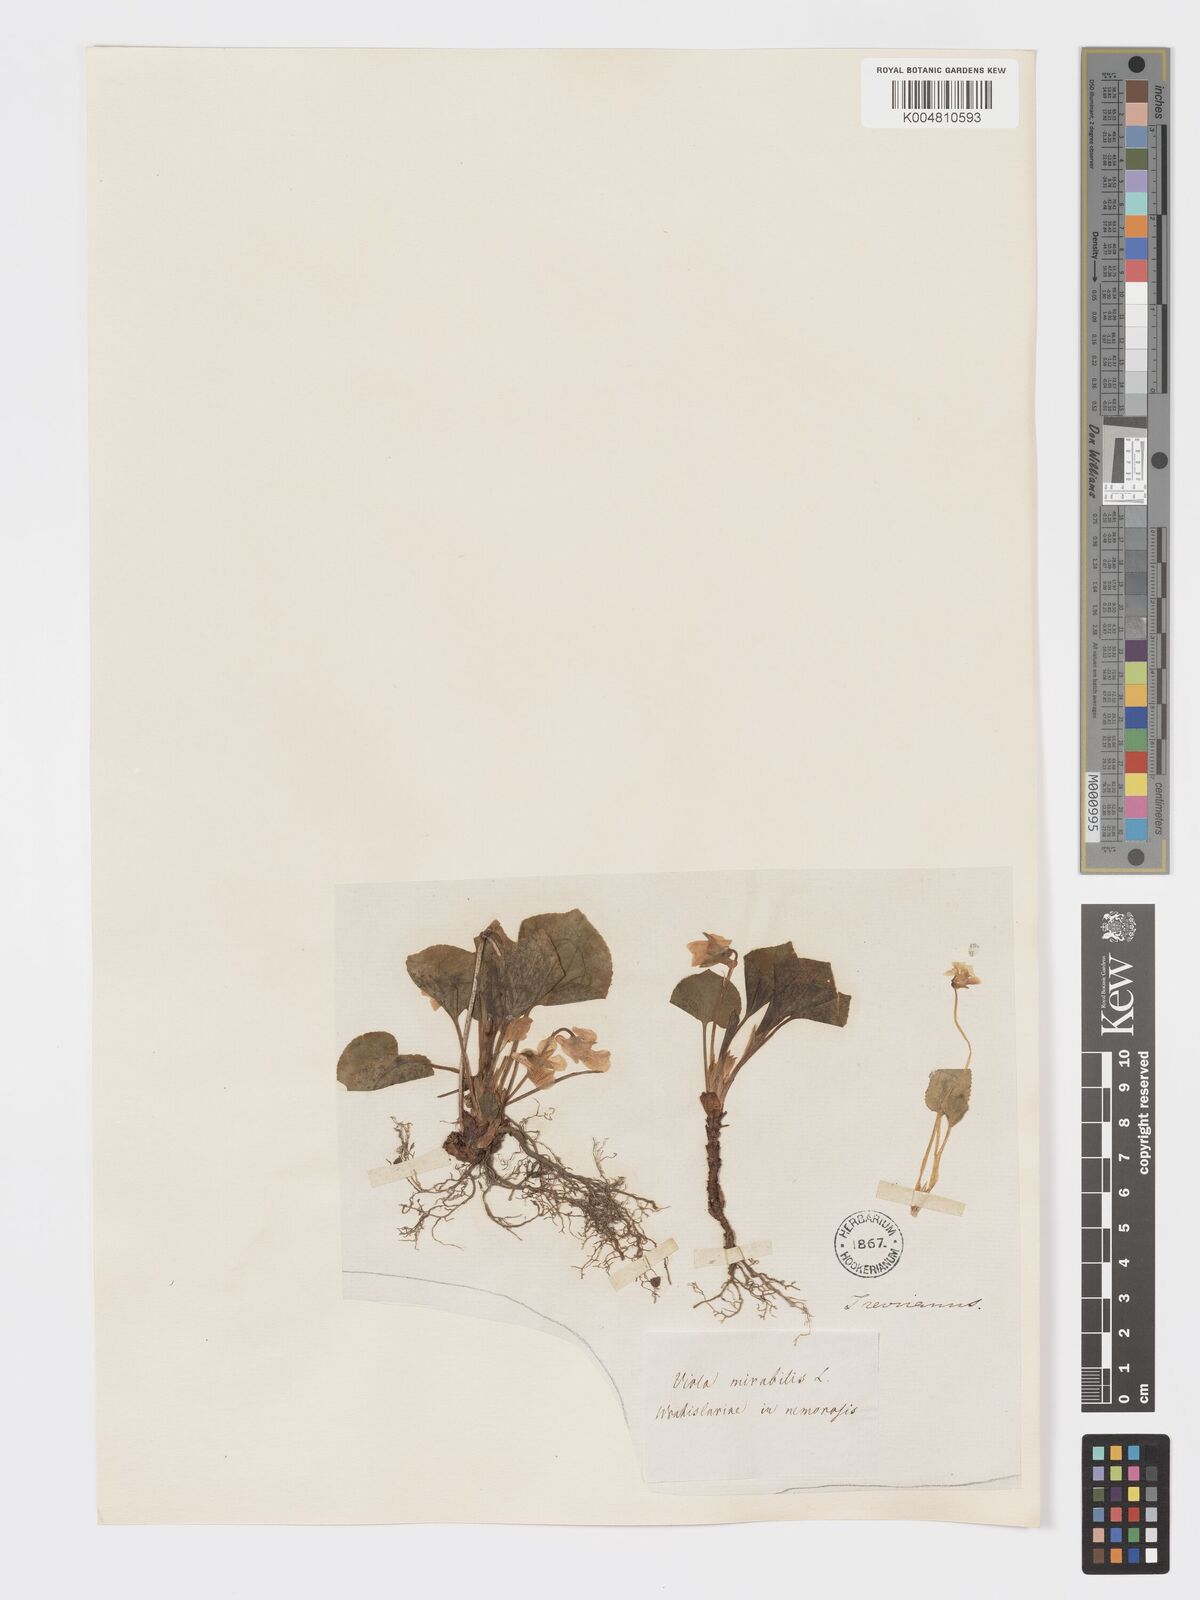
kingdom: Plantae
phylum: Tracheophyta
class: Magnoliopsida
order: Malpighiales
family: Violaceae
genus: Viola
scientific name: Viola mirabilis
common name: Wonder violet
